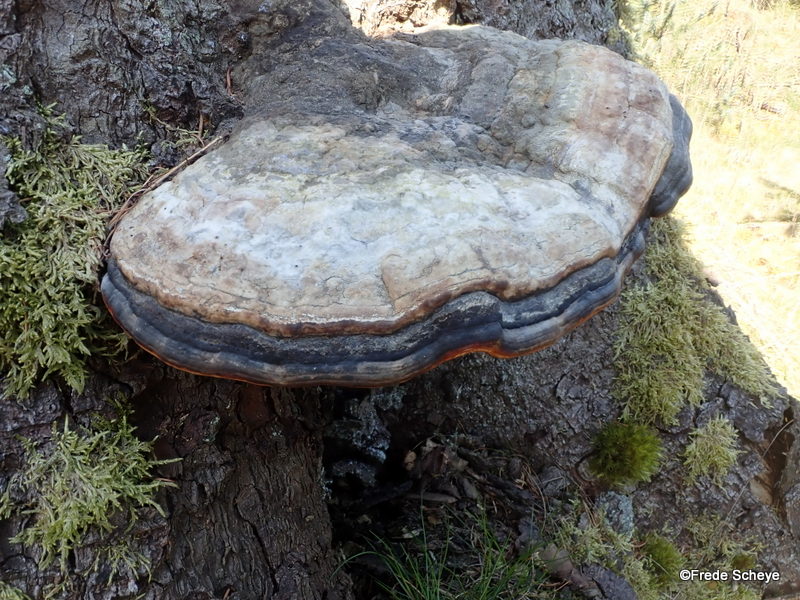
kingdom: Fungi
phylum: Basidiomycota
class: Agaricomycetes
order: Polyporales
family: Fomitopsidaceae
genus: Fomitopsis
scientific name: Fomitopsis pinicola
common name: randbæltet hovporesvamp
